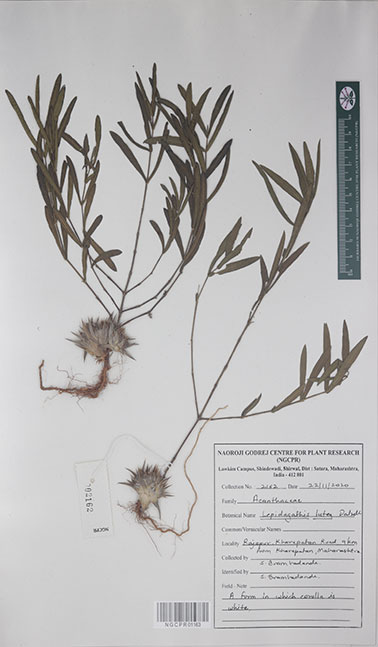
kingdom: Plantae
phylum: Tracheophyta
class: Magnoliopsida
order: Lamiales
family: Acanthaceae
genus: Lepidagathis
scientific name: Lepidagathis lutea
